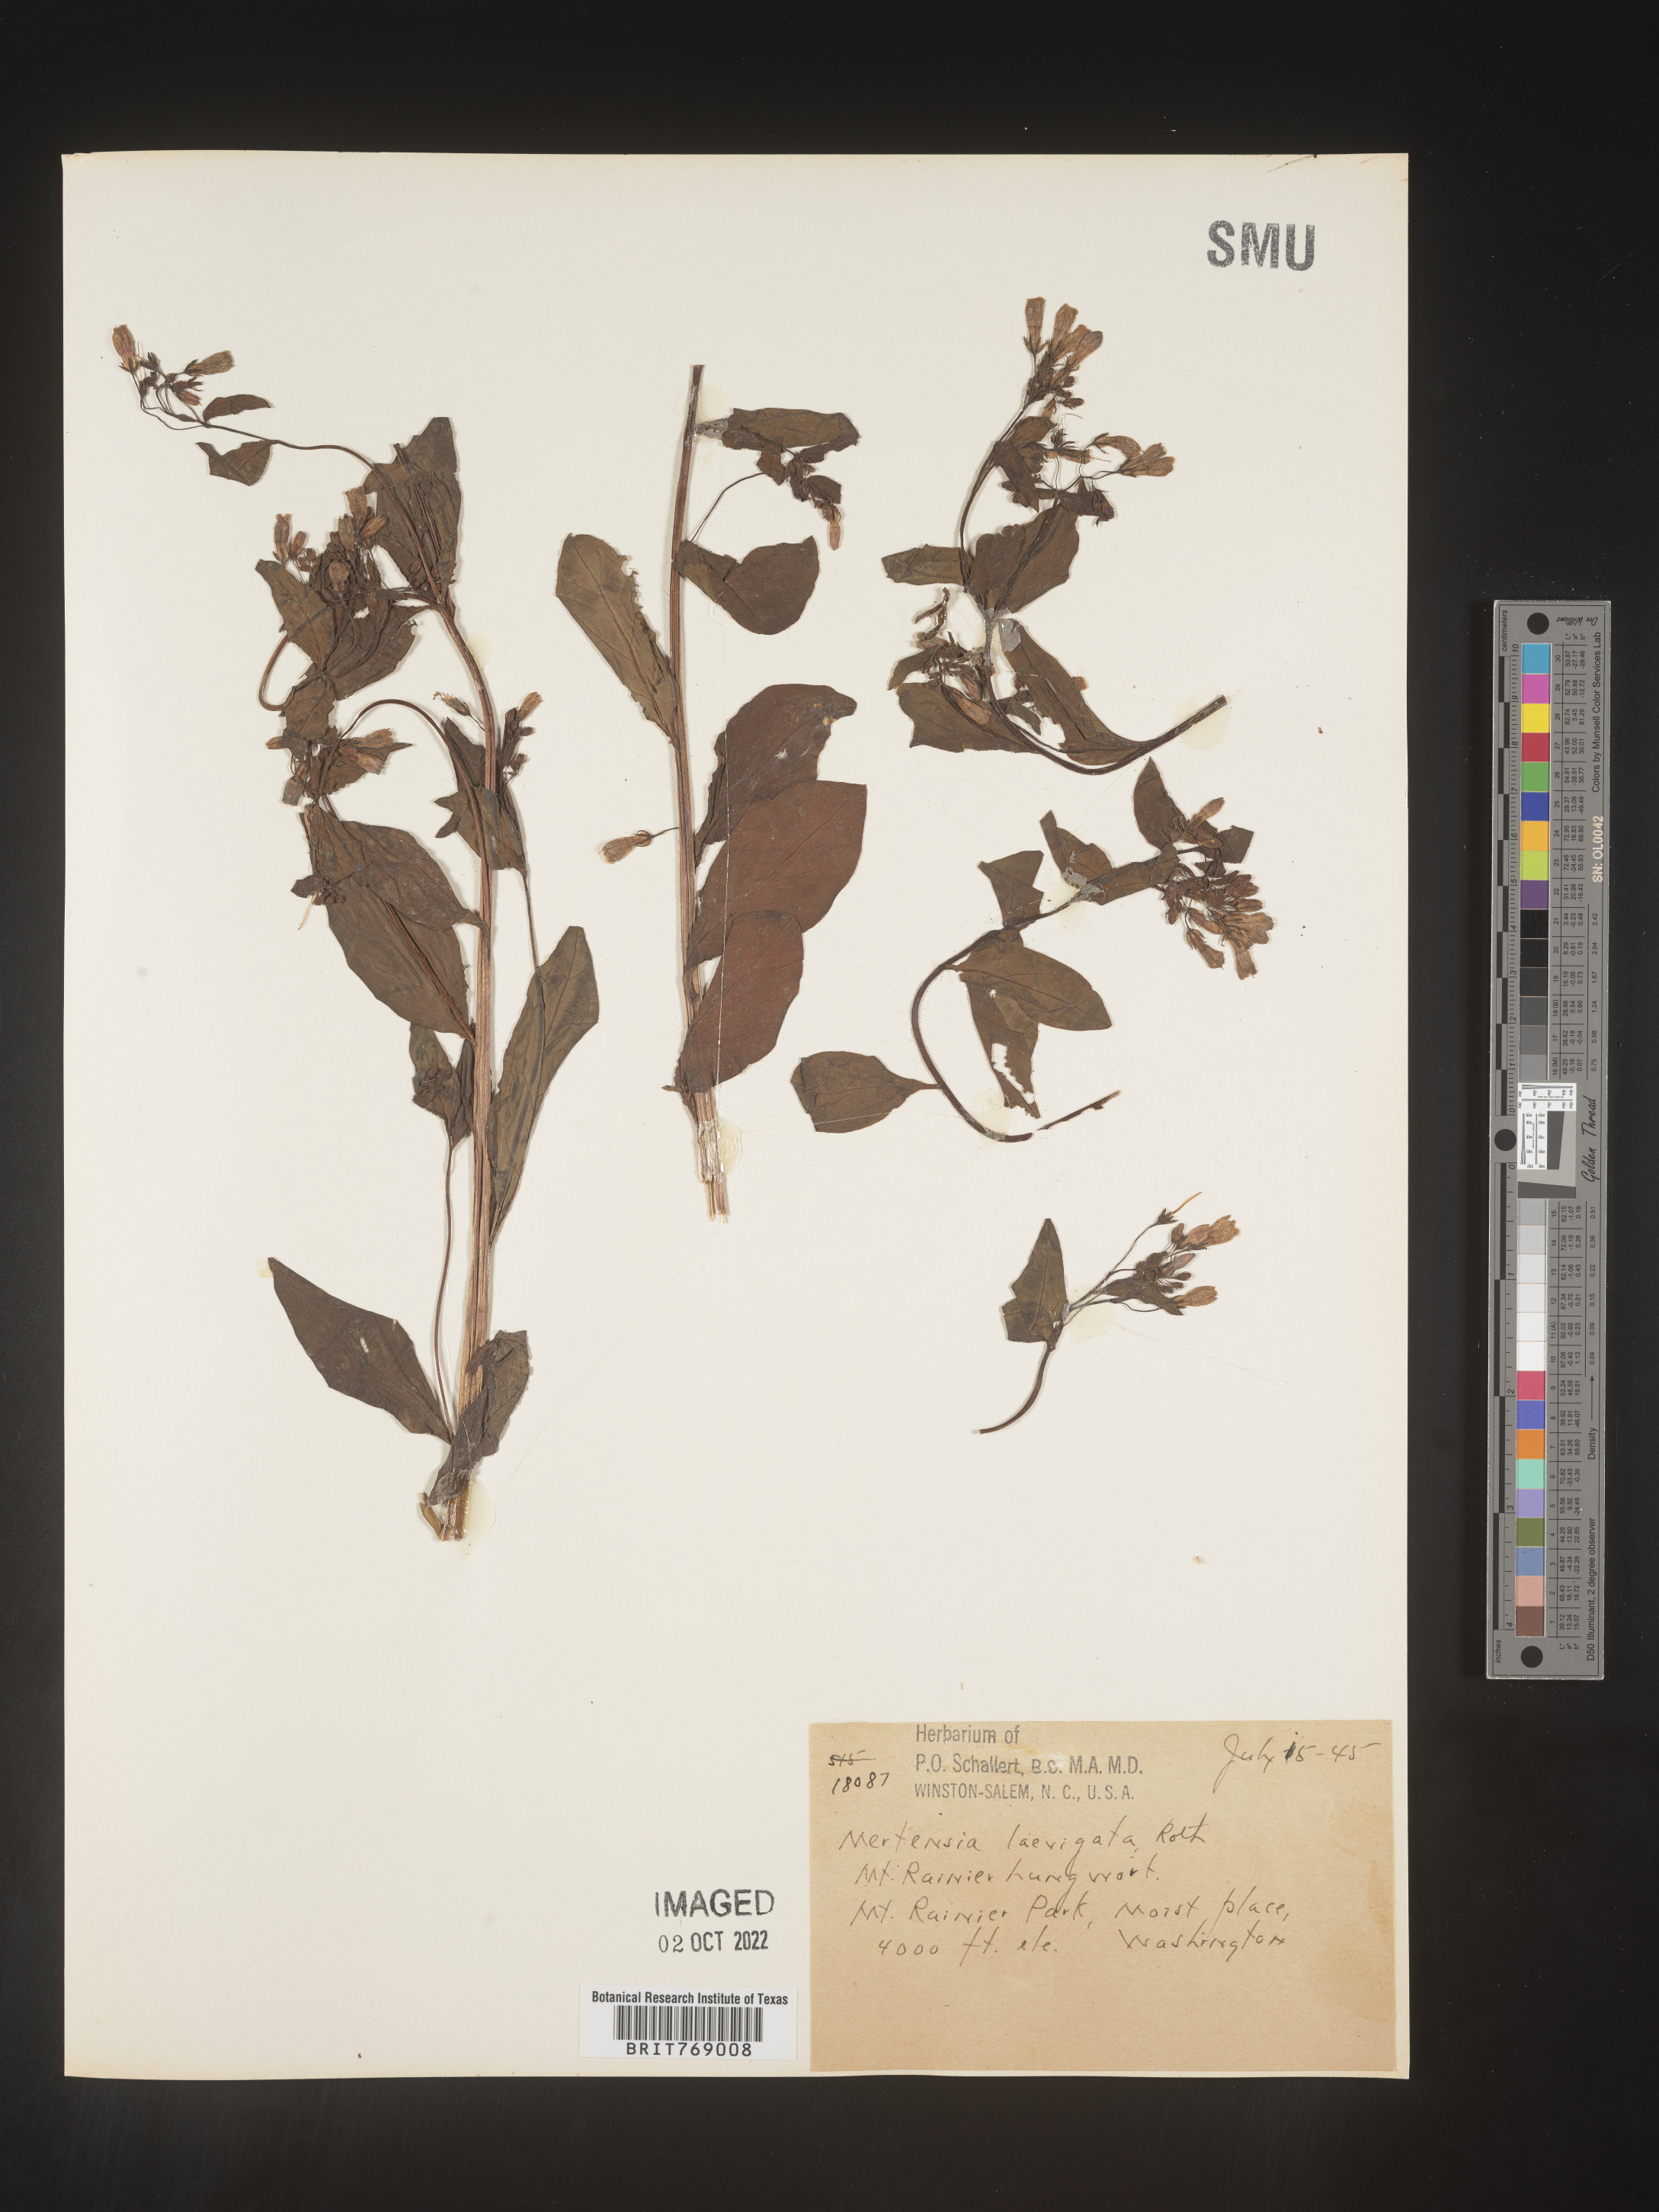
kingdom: Plantae
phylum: Tracheophyta
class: Magnoliopsida
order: Boraginales
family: Boraginaceae
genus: Mertensia
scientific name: Mertensia
